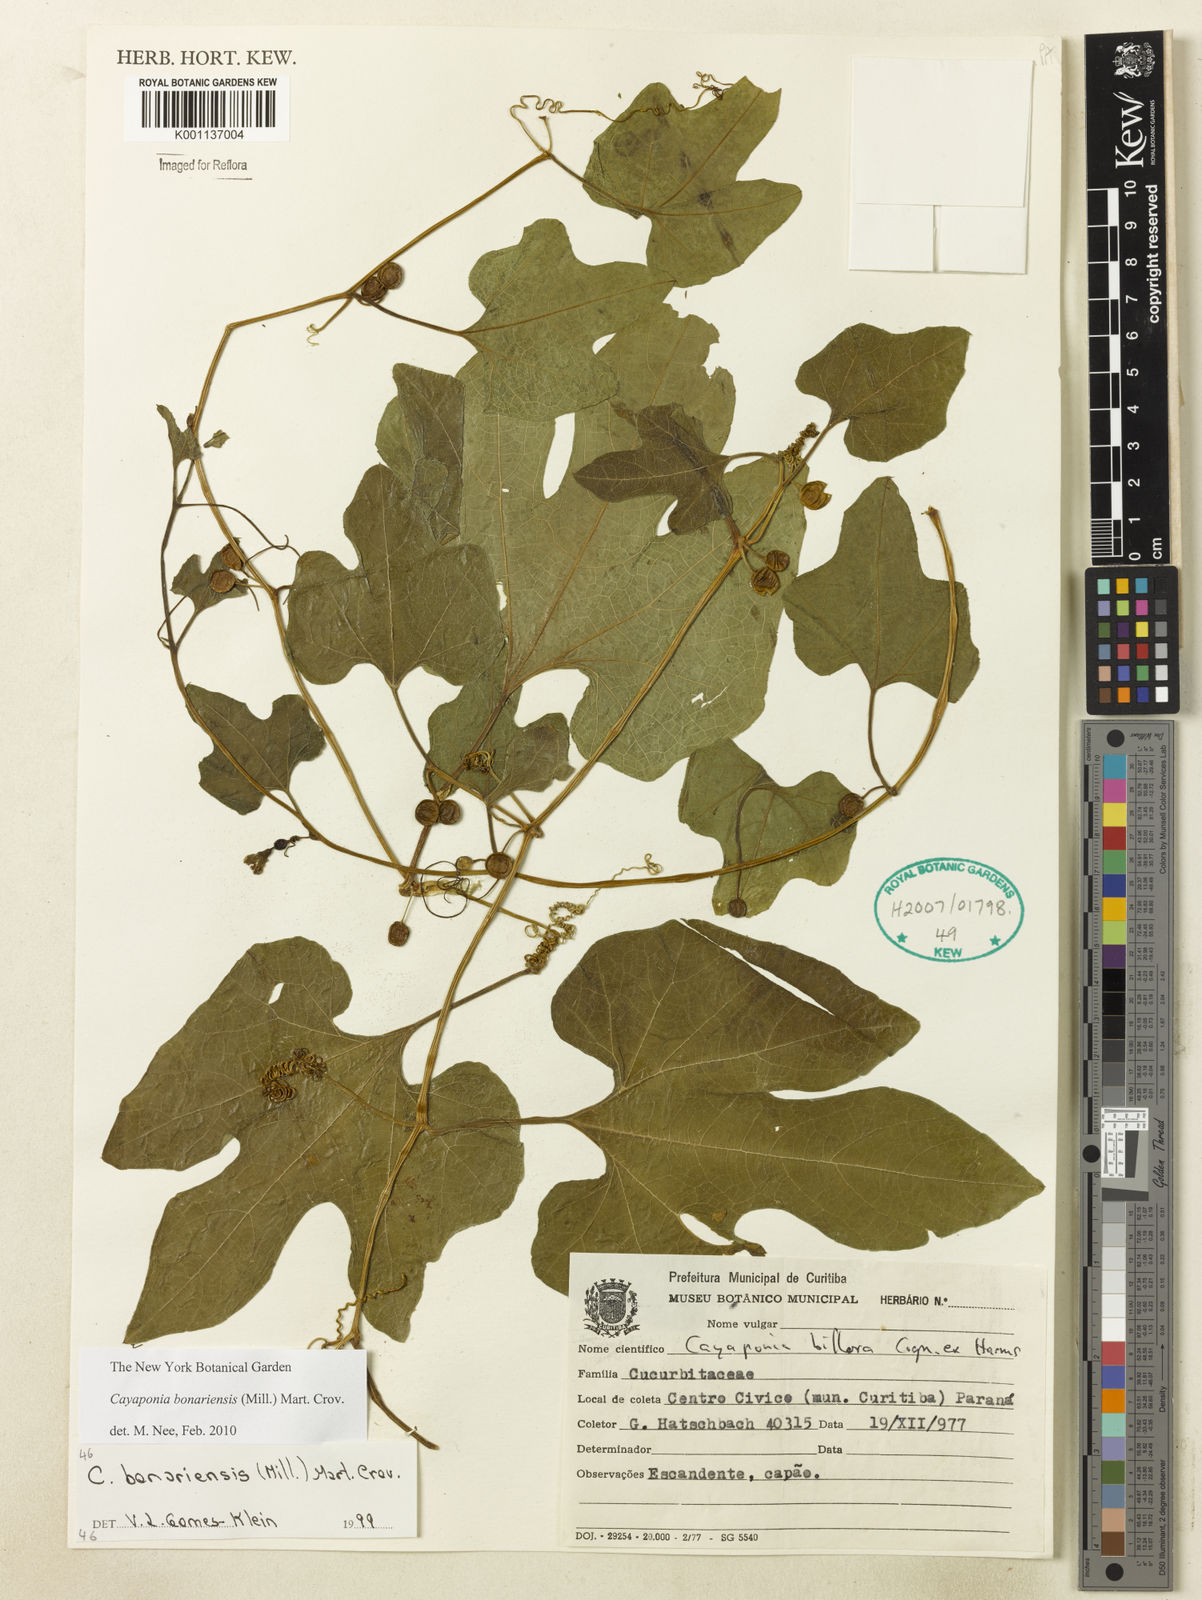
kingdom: Plantae
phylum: Tracheophyta
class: Magnoliopsida
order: Cucurbitales
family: Cucurbitaceae
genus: Cayaponia
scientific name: Cayaponia bonariensis
